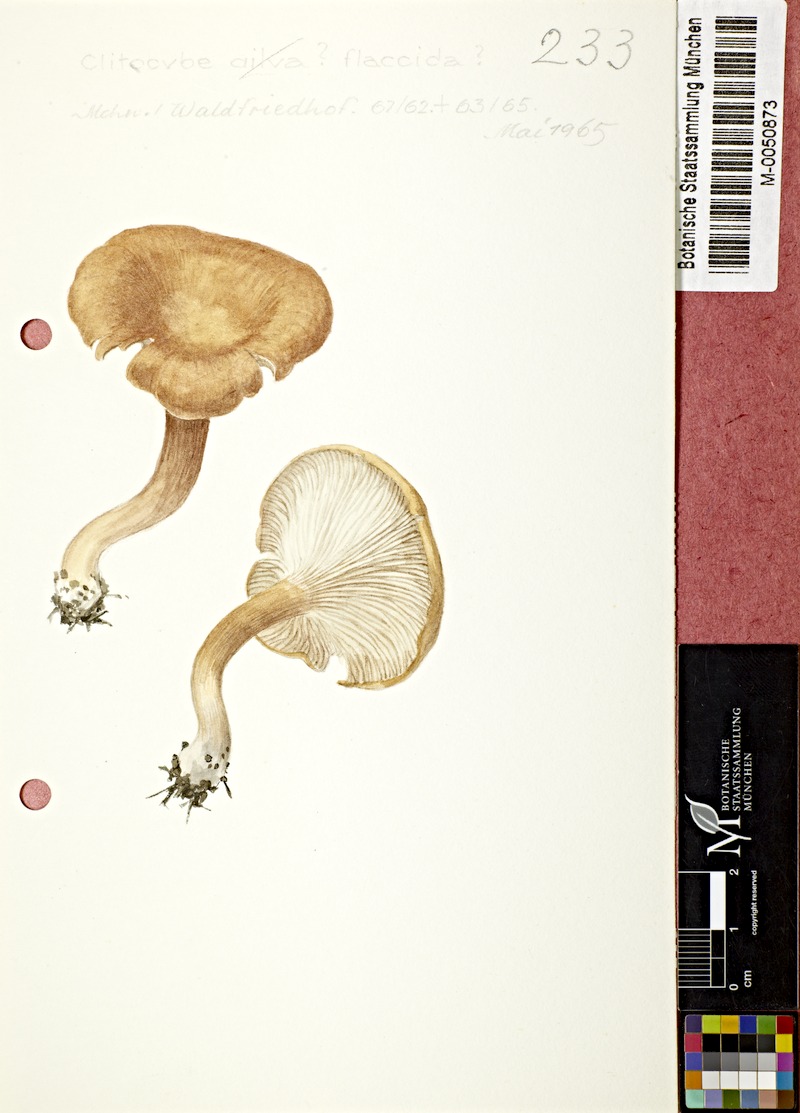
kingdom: Fungi
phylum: Basidiomycota
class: Agaricomycetes
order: Agaricales
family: Tricholomataceae
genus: Paralepista
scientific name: Paralepista flaccida
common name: Tawny funnel cap
